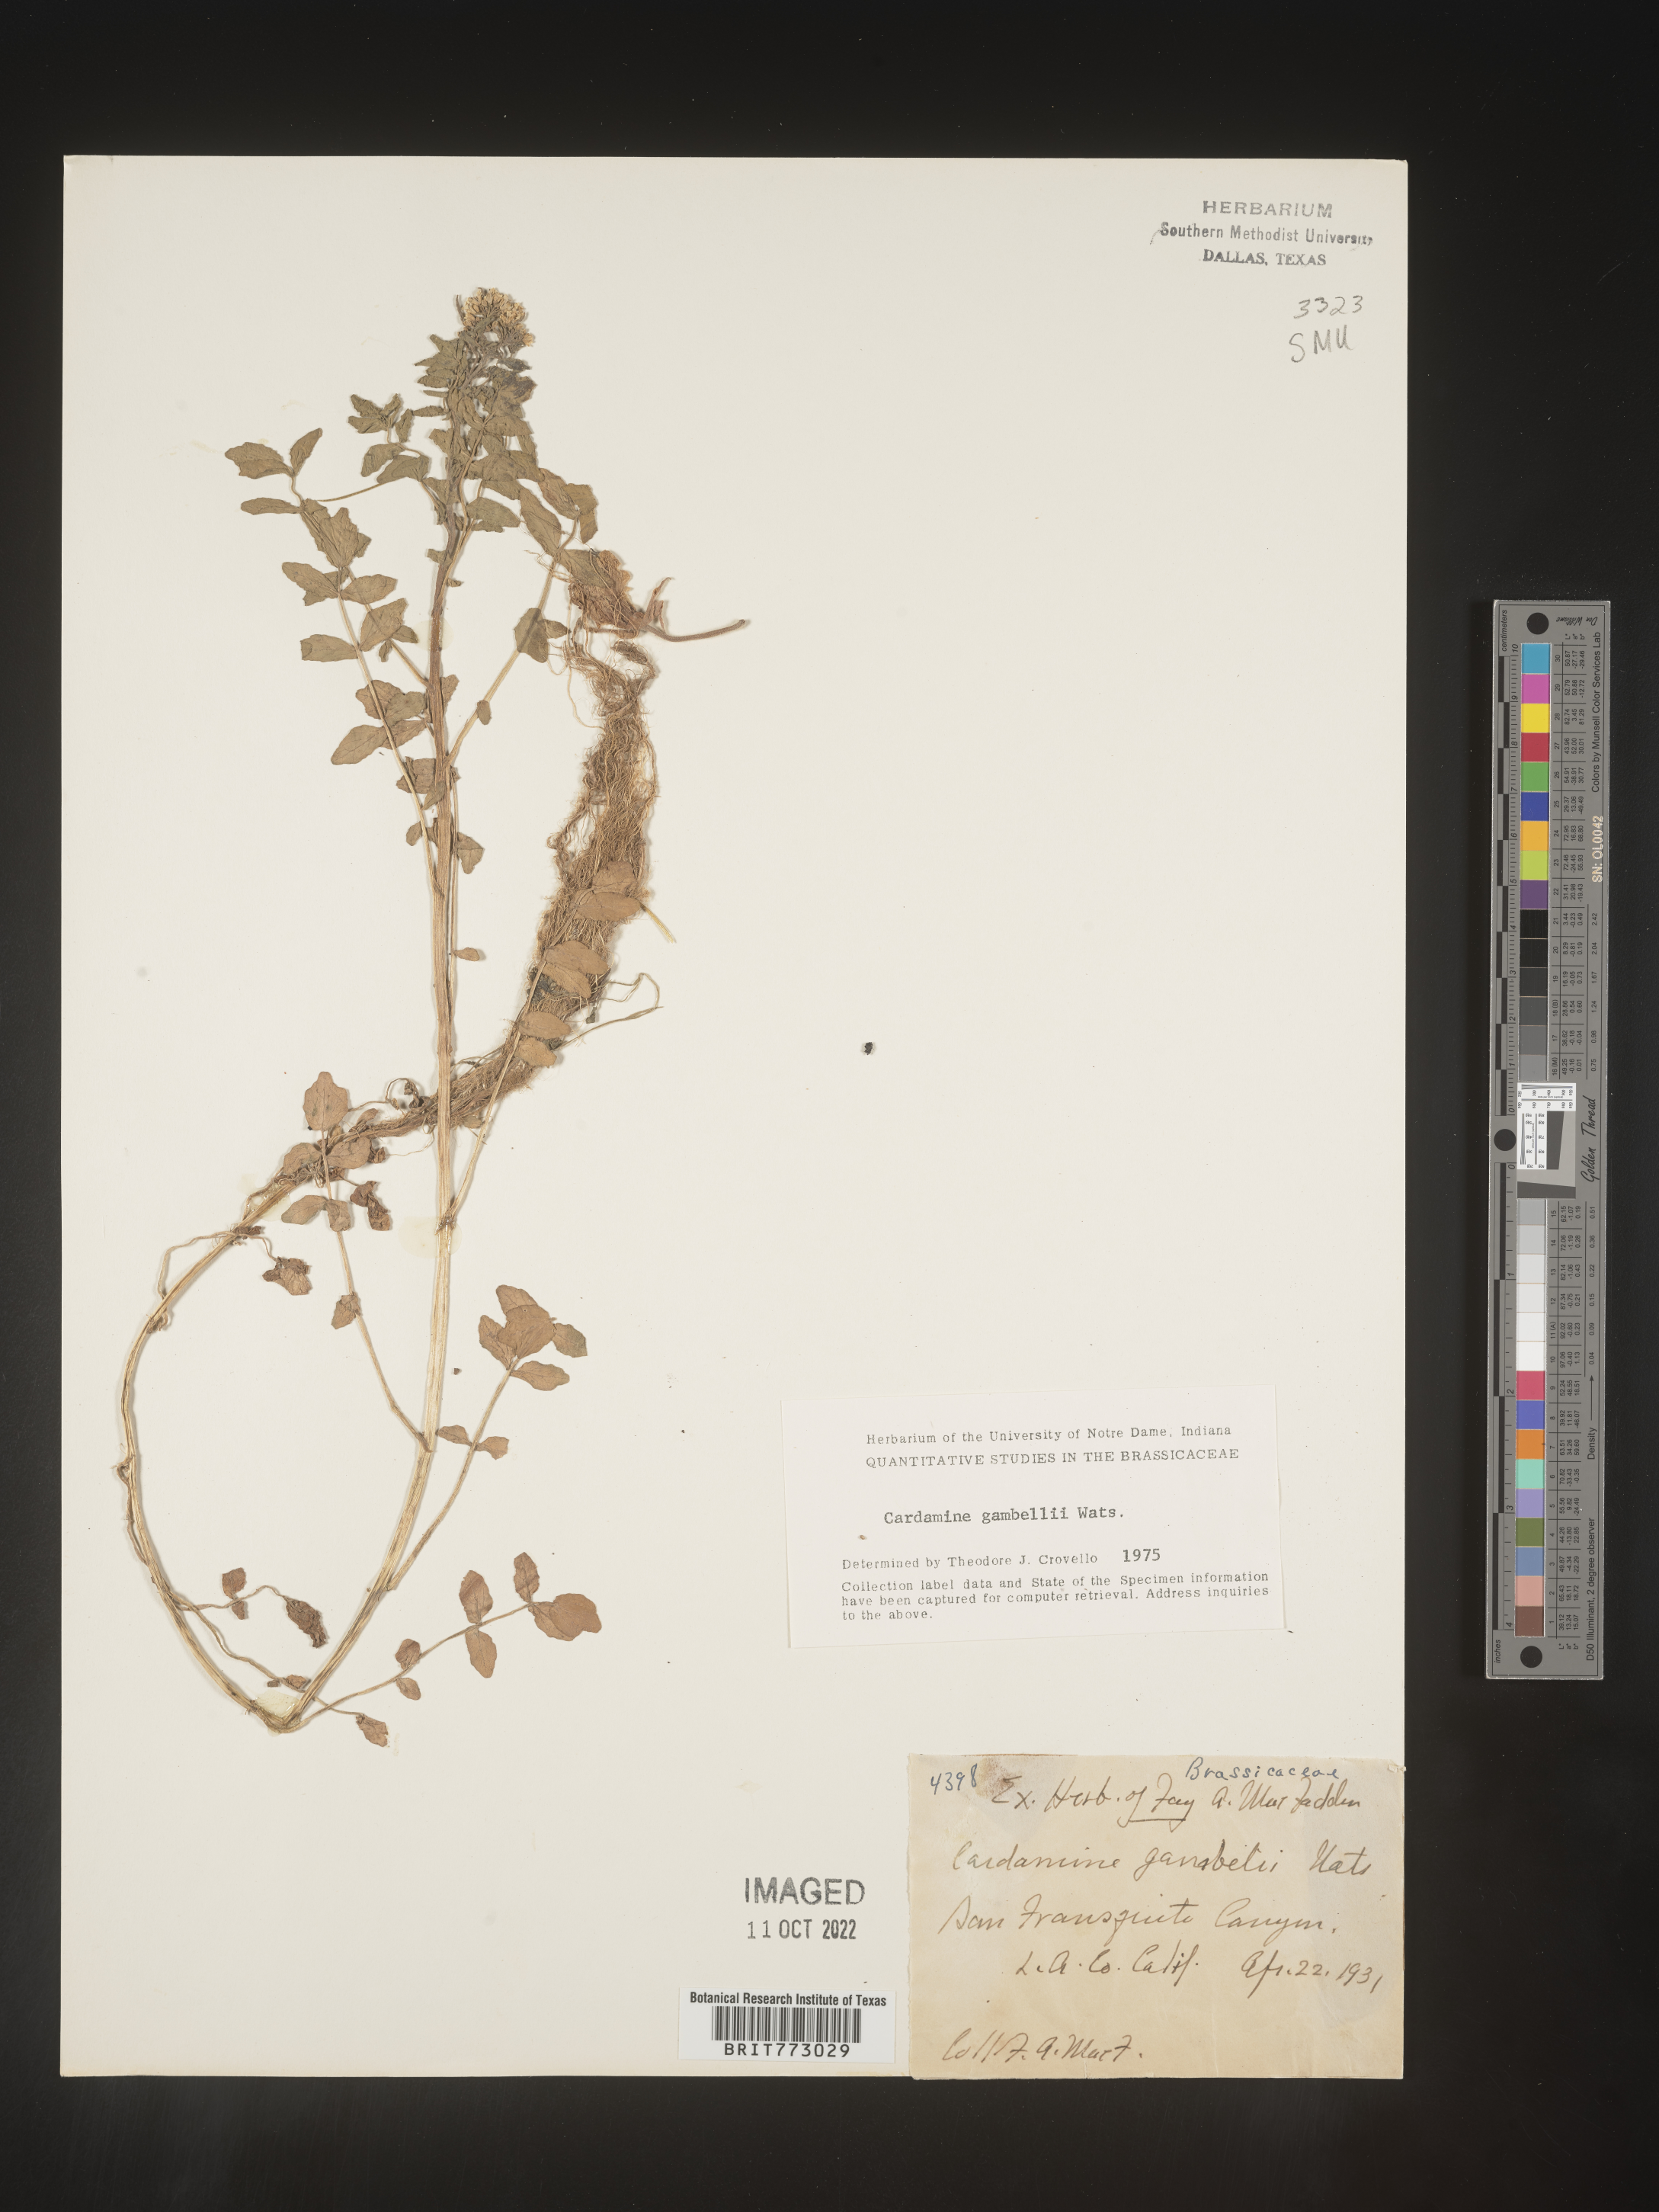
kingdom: Plantae
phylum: Tracheophyta
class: Magnoliopsida
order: Brassicales
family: Brassicaceae
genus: Cardamine
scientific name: Cardamine
